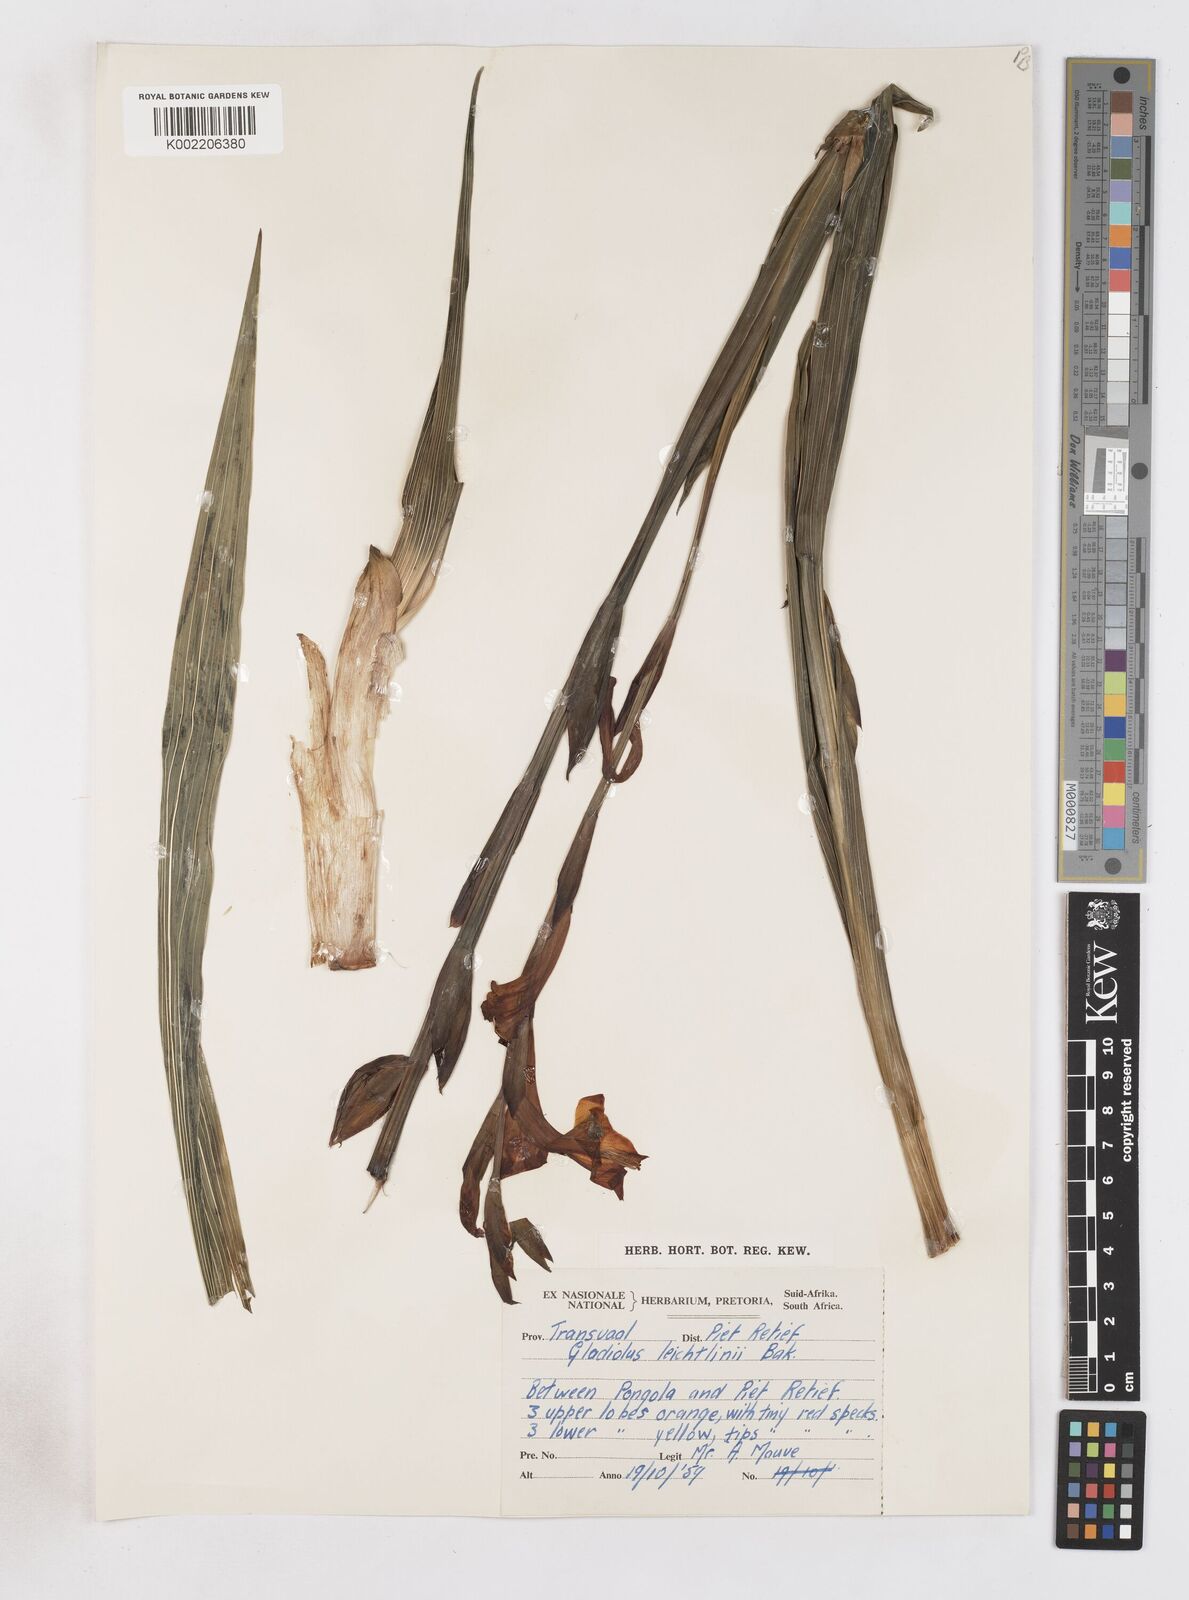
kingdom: Plantae
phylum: Tracheophyta
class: Liliopsida
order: Asparagales
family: Iridaceae
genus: Gladiolus
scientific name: Gladiolus aurantiacus
